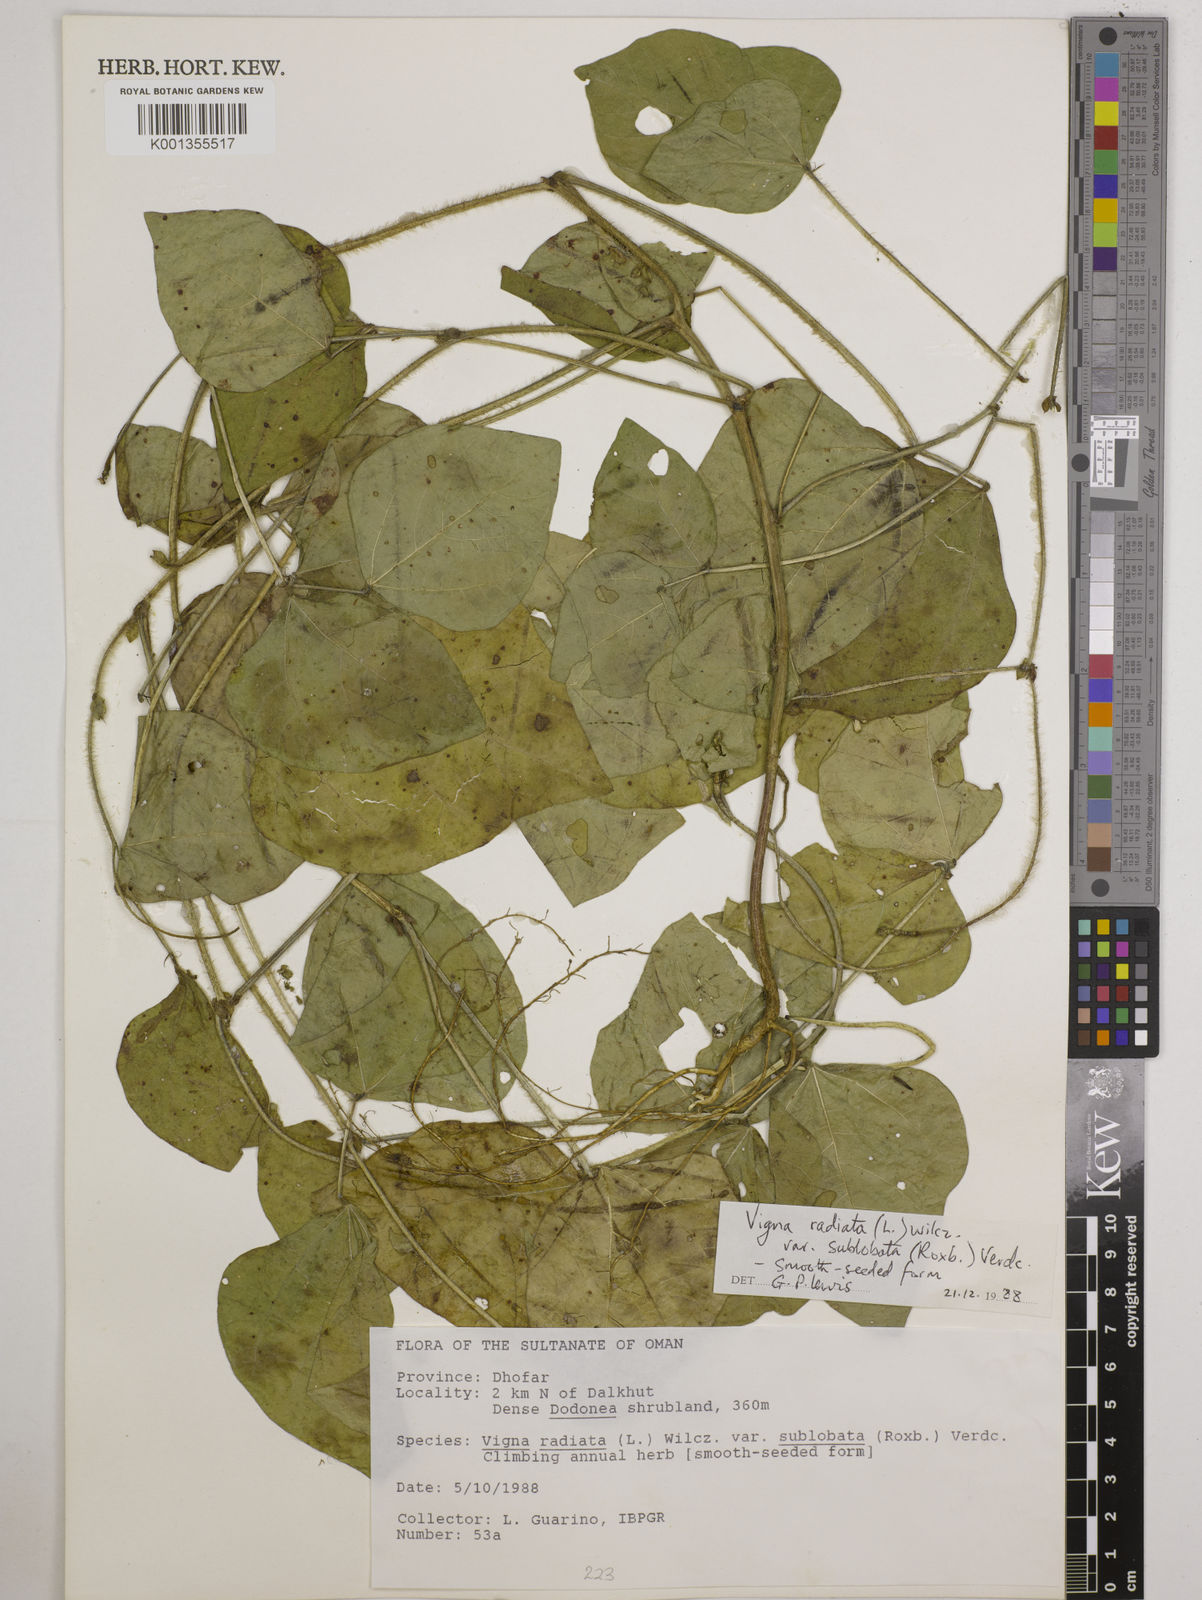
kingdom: Plantae
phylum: Tracheophyta
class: Magnoliopsida
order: Fabales
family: Fabaceae
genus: Vigna
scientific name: Vigna radiata
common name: Mung-bean
